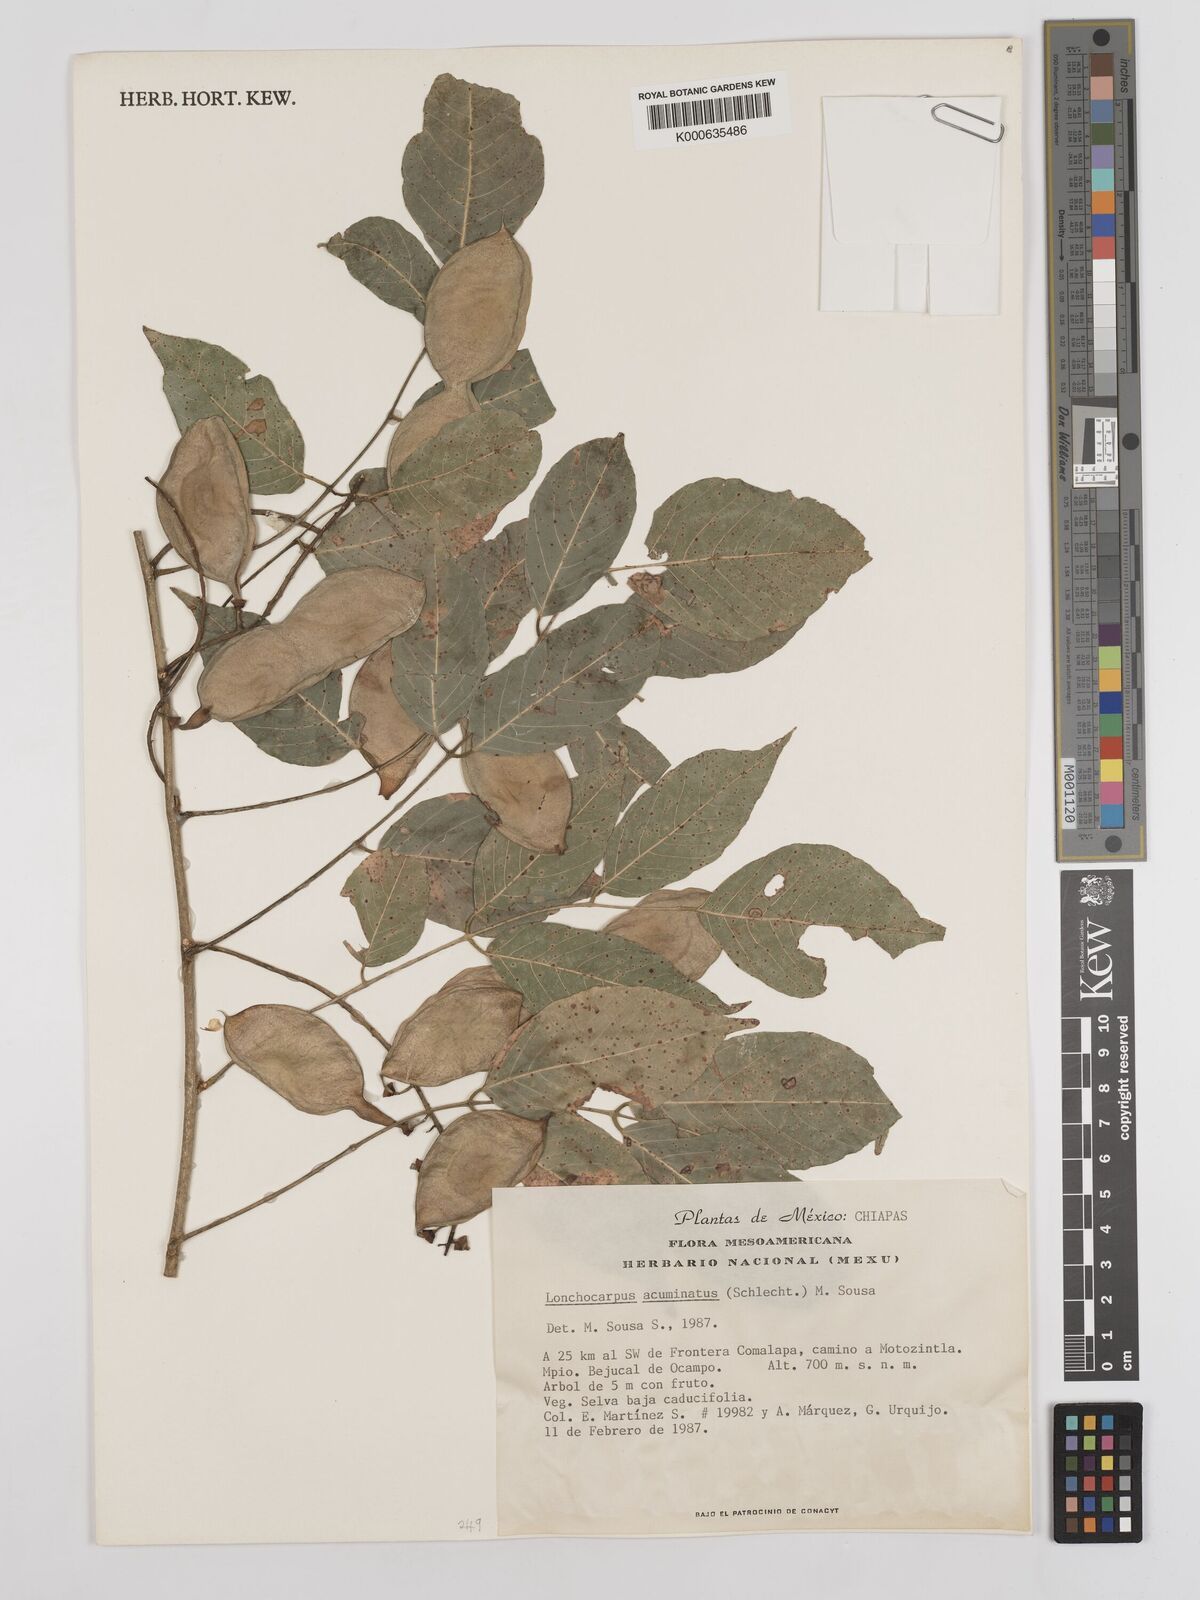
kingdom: Plantae
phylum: Tracheophyta
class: Magnoliopsida
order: Fabales
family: Fabaceae
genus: Lonchocarpus
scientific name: Lonchocarpus acuminatus
